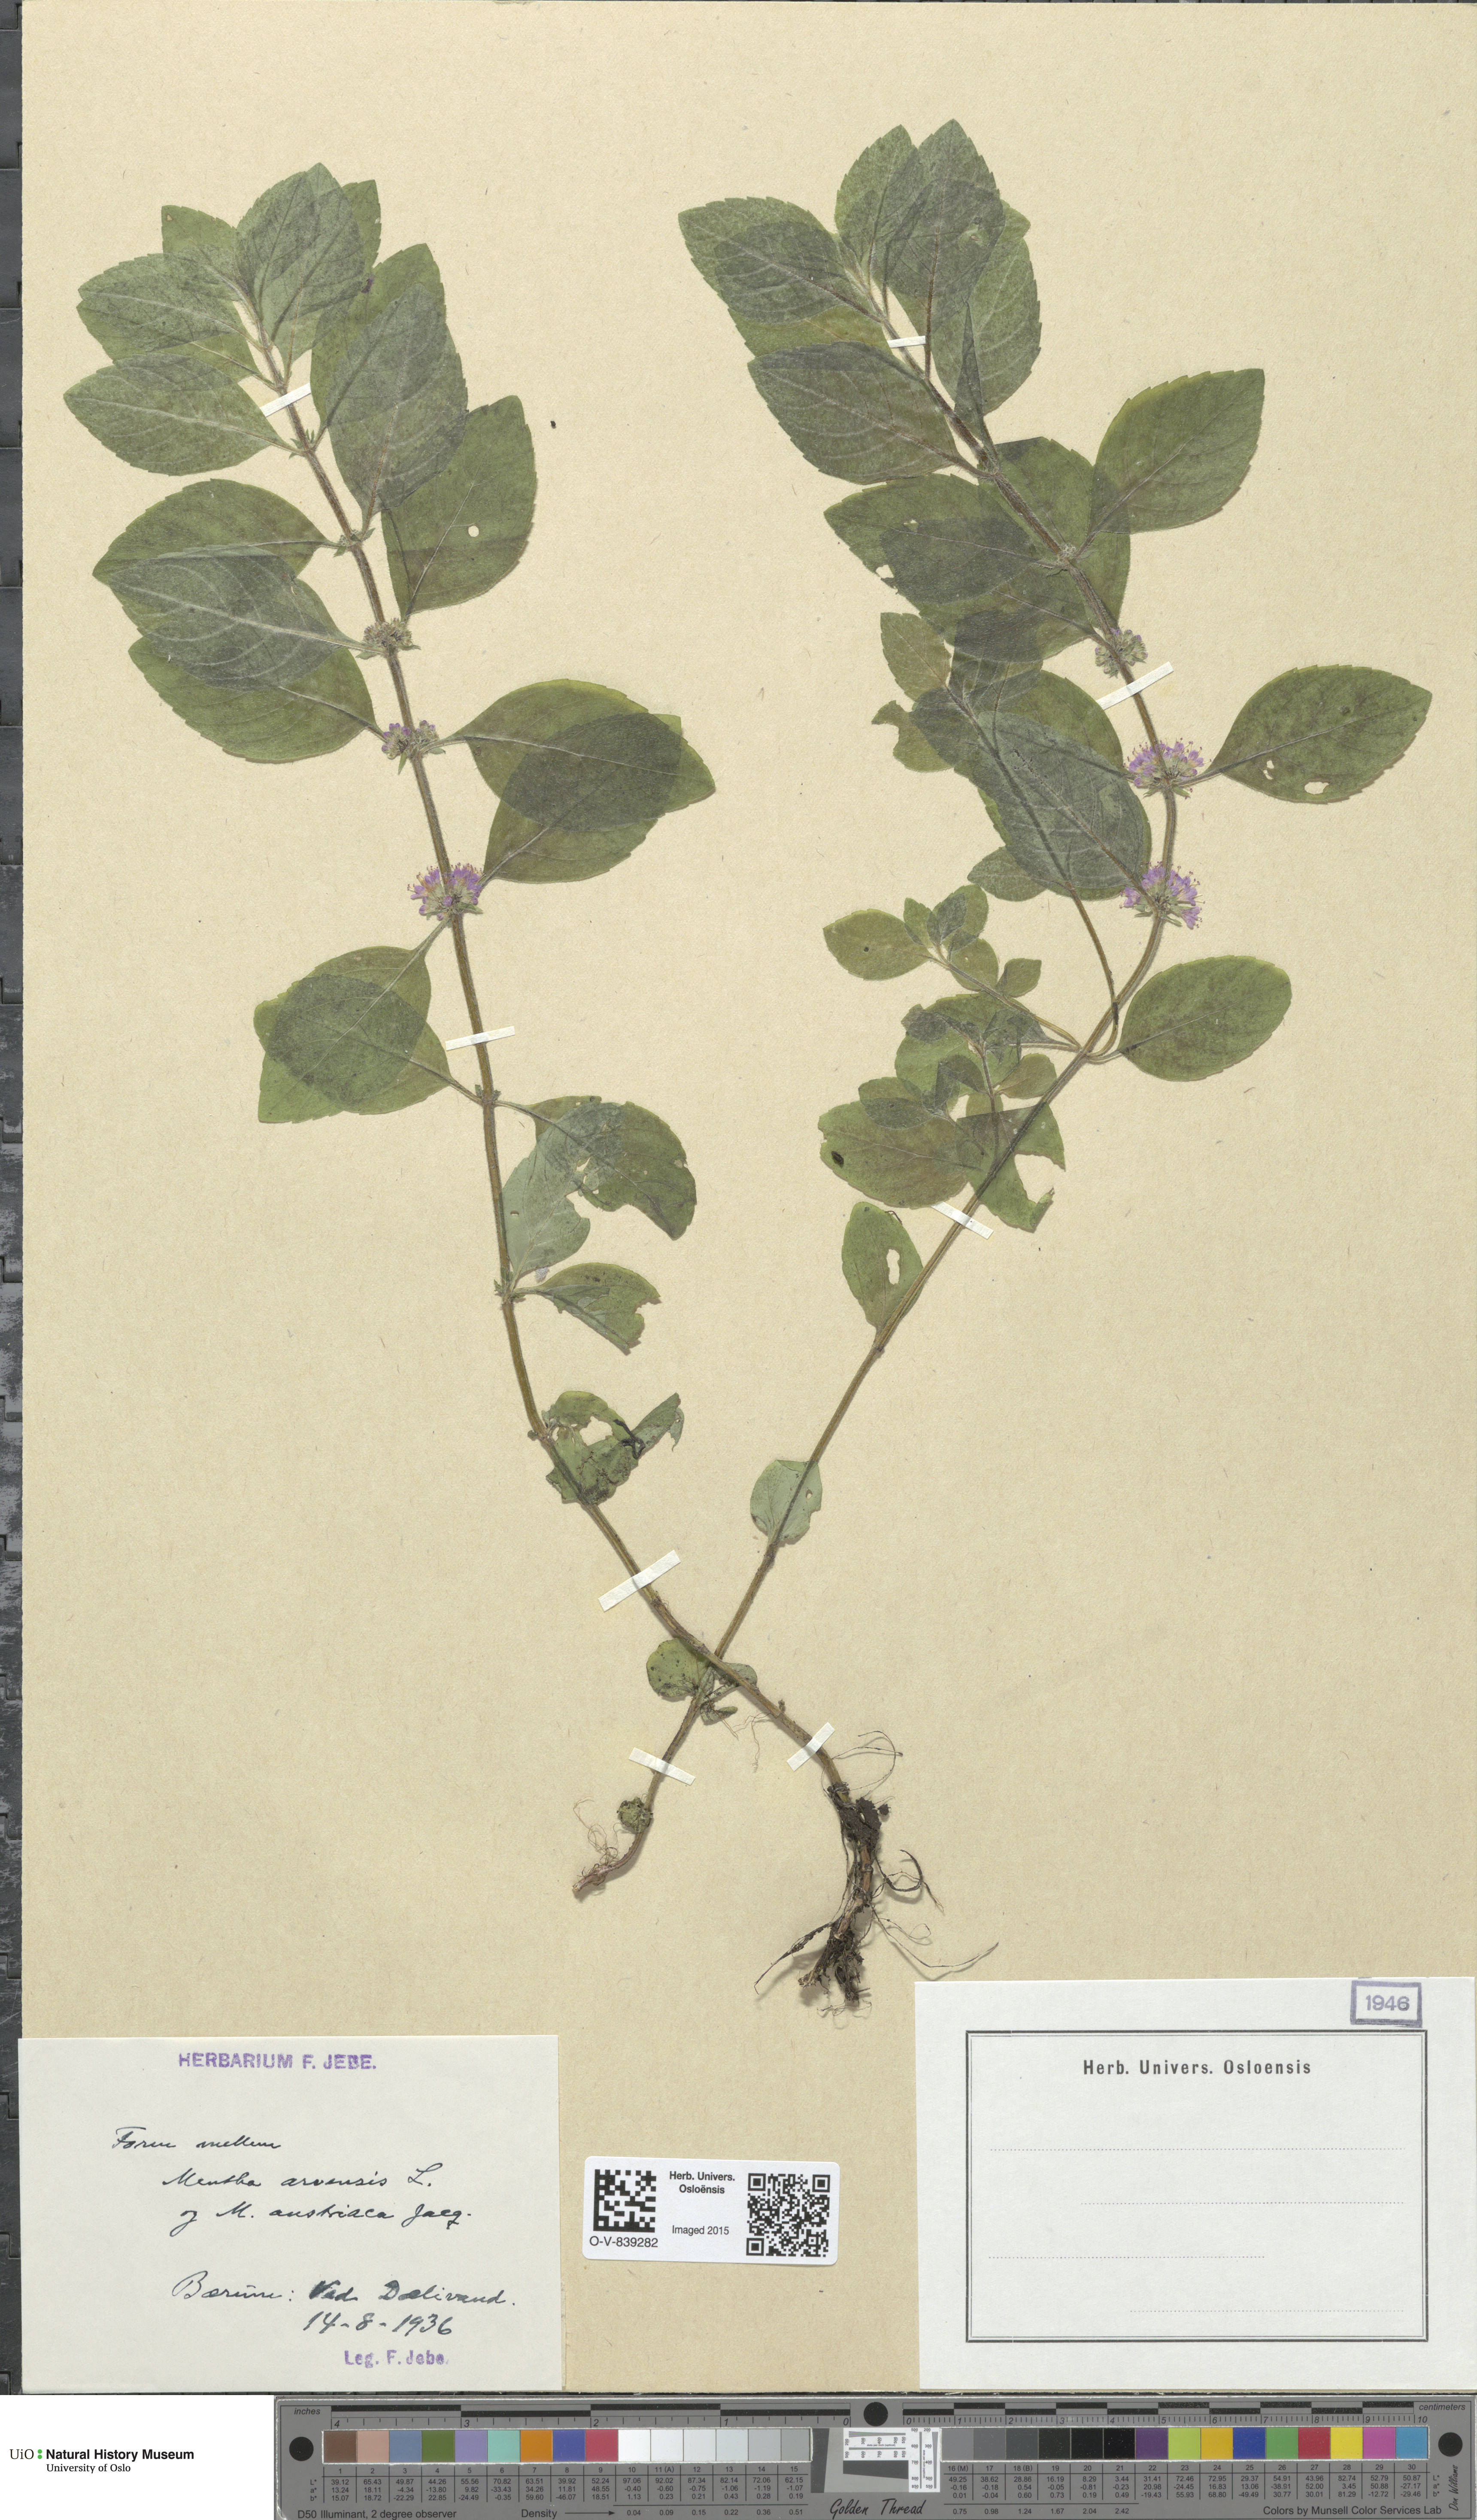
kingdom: Plantae
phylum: Tracheophyta
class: Magnoliopsida
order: Lamiales
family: Lamiaceae
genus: Mentha
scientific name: Mentha arvensis
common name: Corn mint
